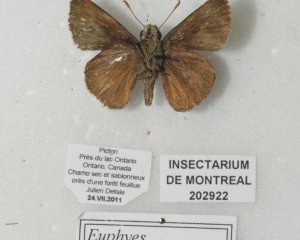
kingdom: Animalia
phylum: Arthropoda
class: Insecta
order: Lepidoptera
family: Hesperiidae
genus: Euphyes
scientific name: Euphyes vestris
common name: Dun Skipper
